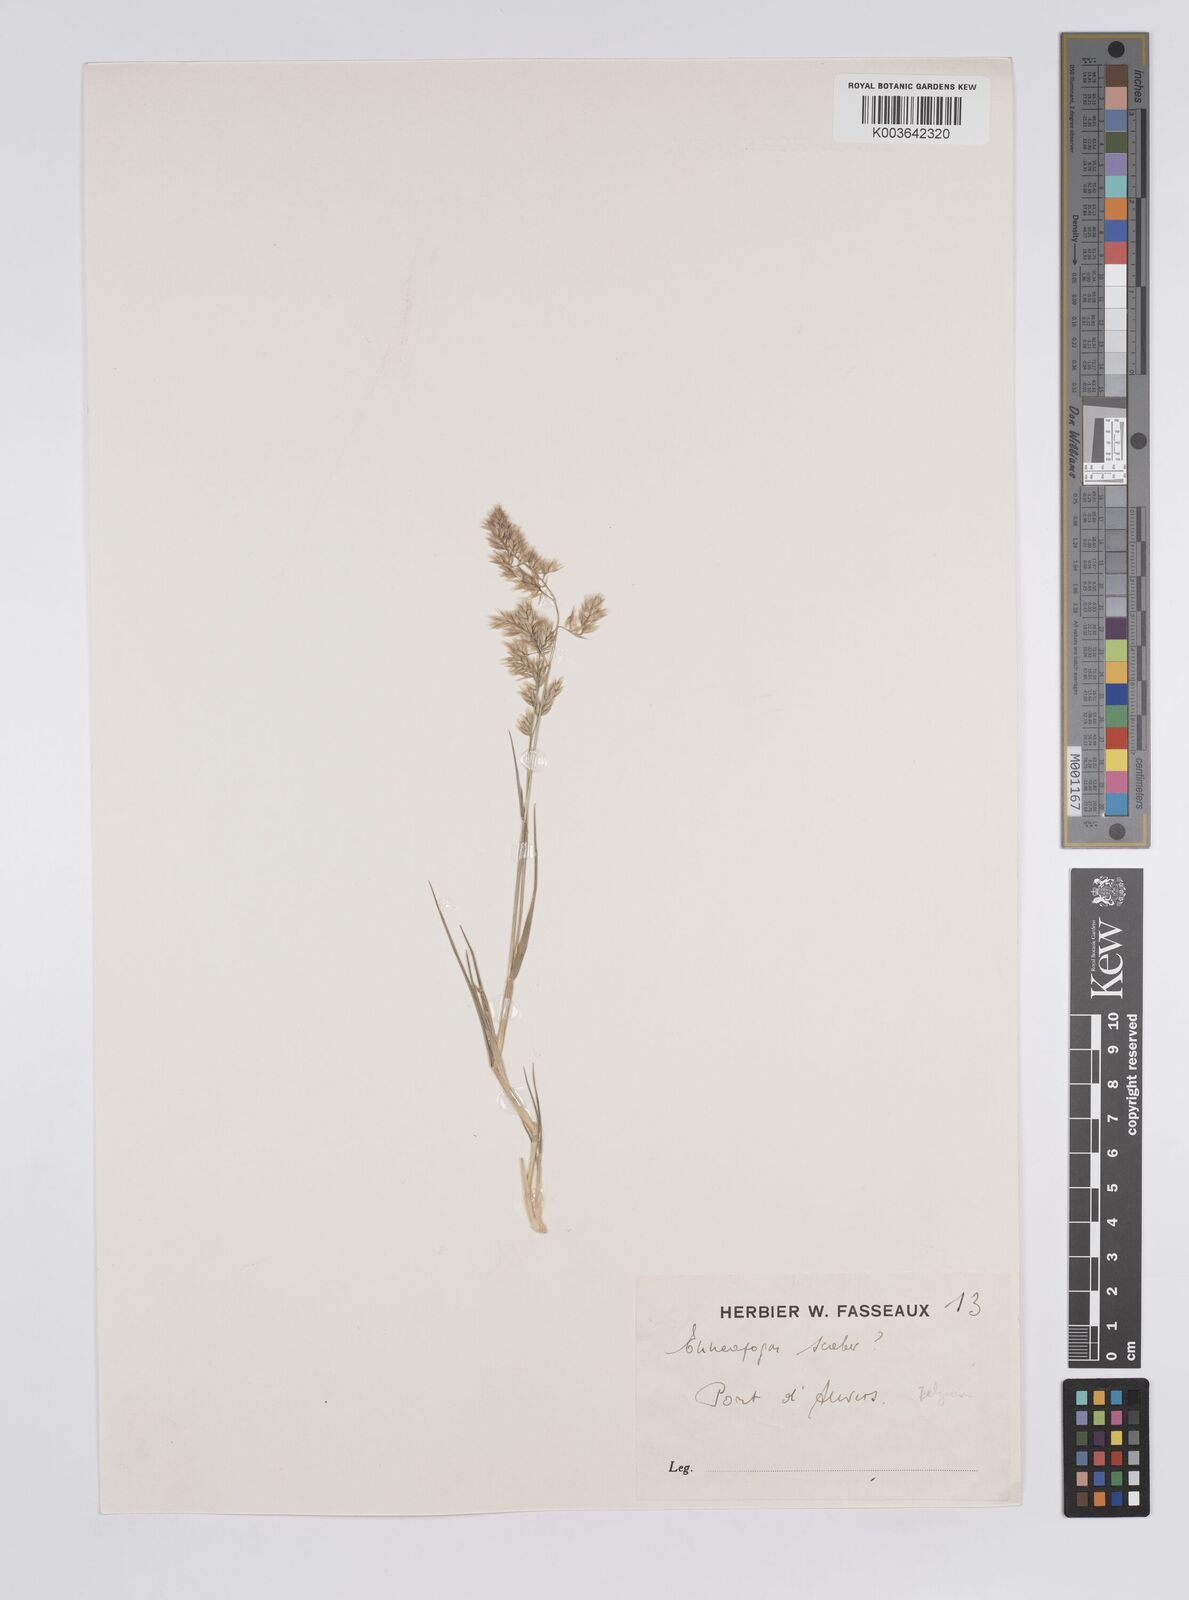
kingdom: Plantae
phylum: Tracheophyta
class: Liliopsida
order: Poales
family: Poaceae
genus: Enneapogon
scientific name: Enneapogon scaber
